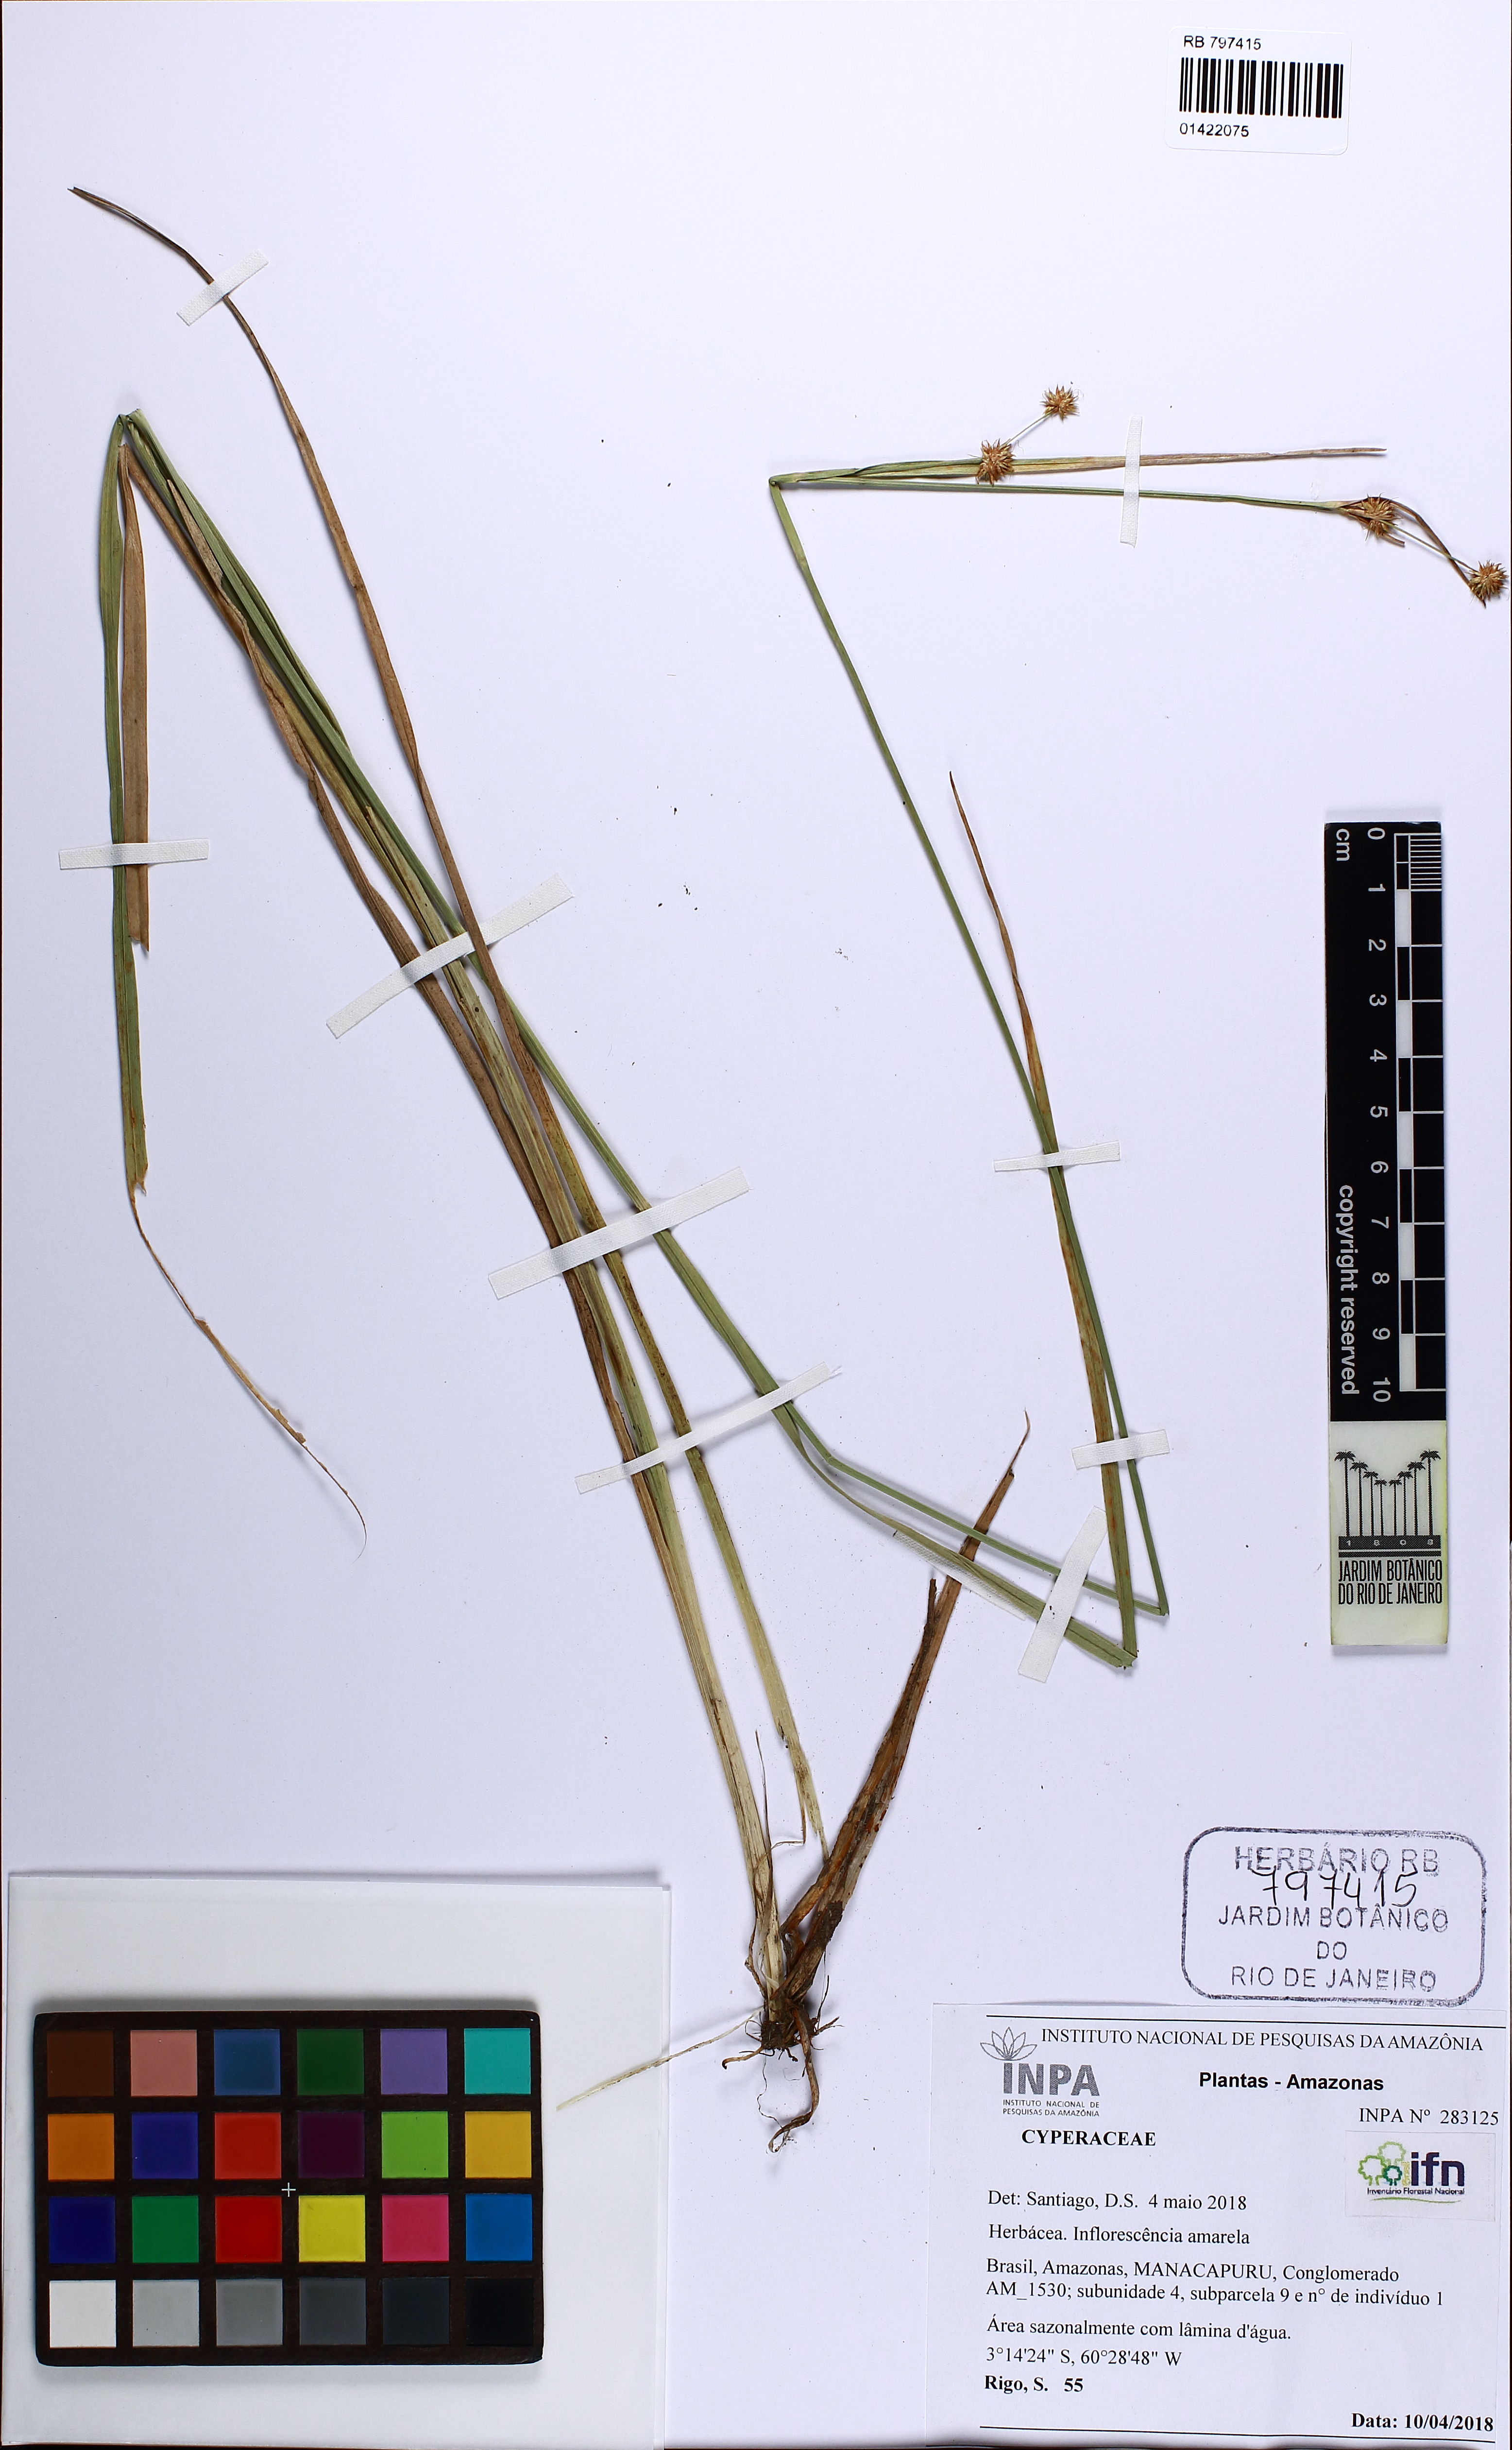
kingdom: Plantae
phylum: Tracheophyta
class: Liliopsida
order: Poales
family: Cyperaceae
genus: Rhynchospora
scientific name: Rhynchospora holoschoenoides
